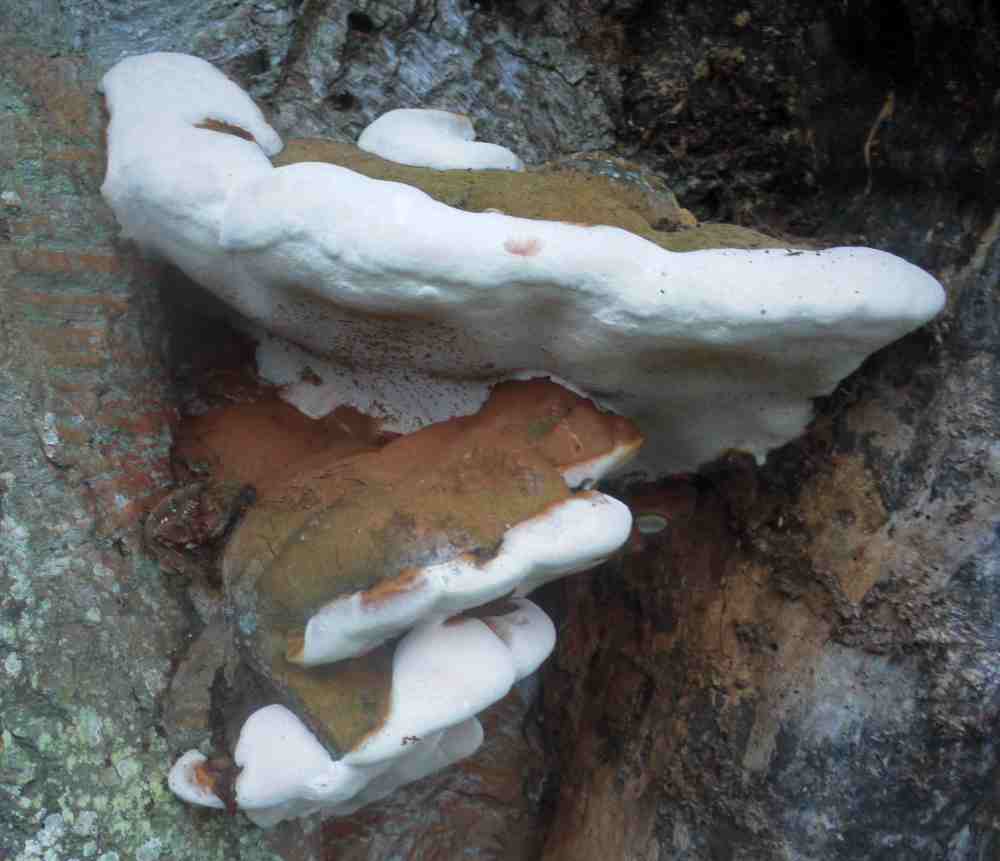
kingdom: Fungi
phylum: Basidiomycota
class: Agaricomycetes
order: Polyporales
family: Polyporaceae
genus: Ganoderma
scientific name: Ganoderma adspersum
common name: grov lakporesvamp
